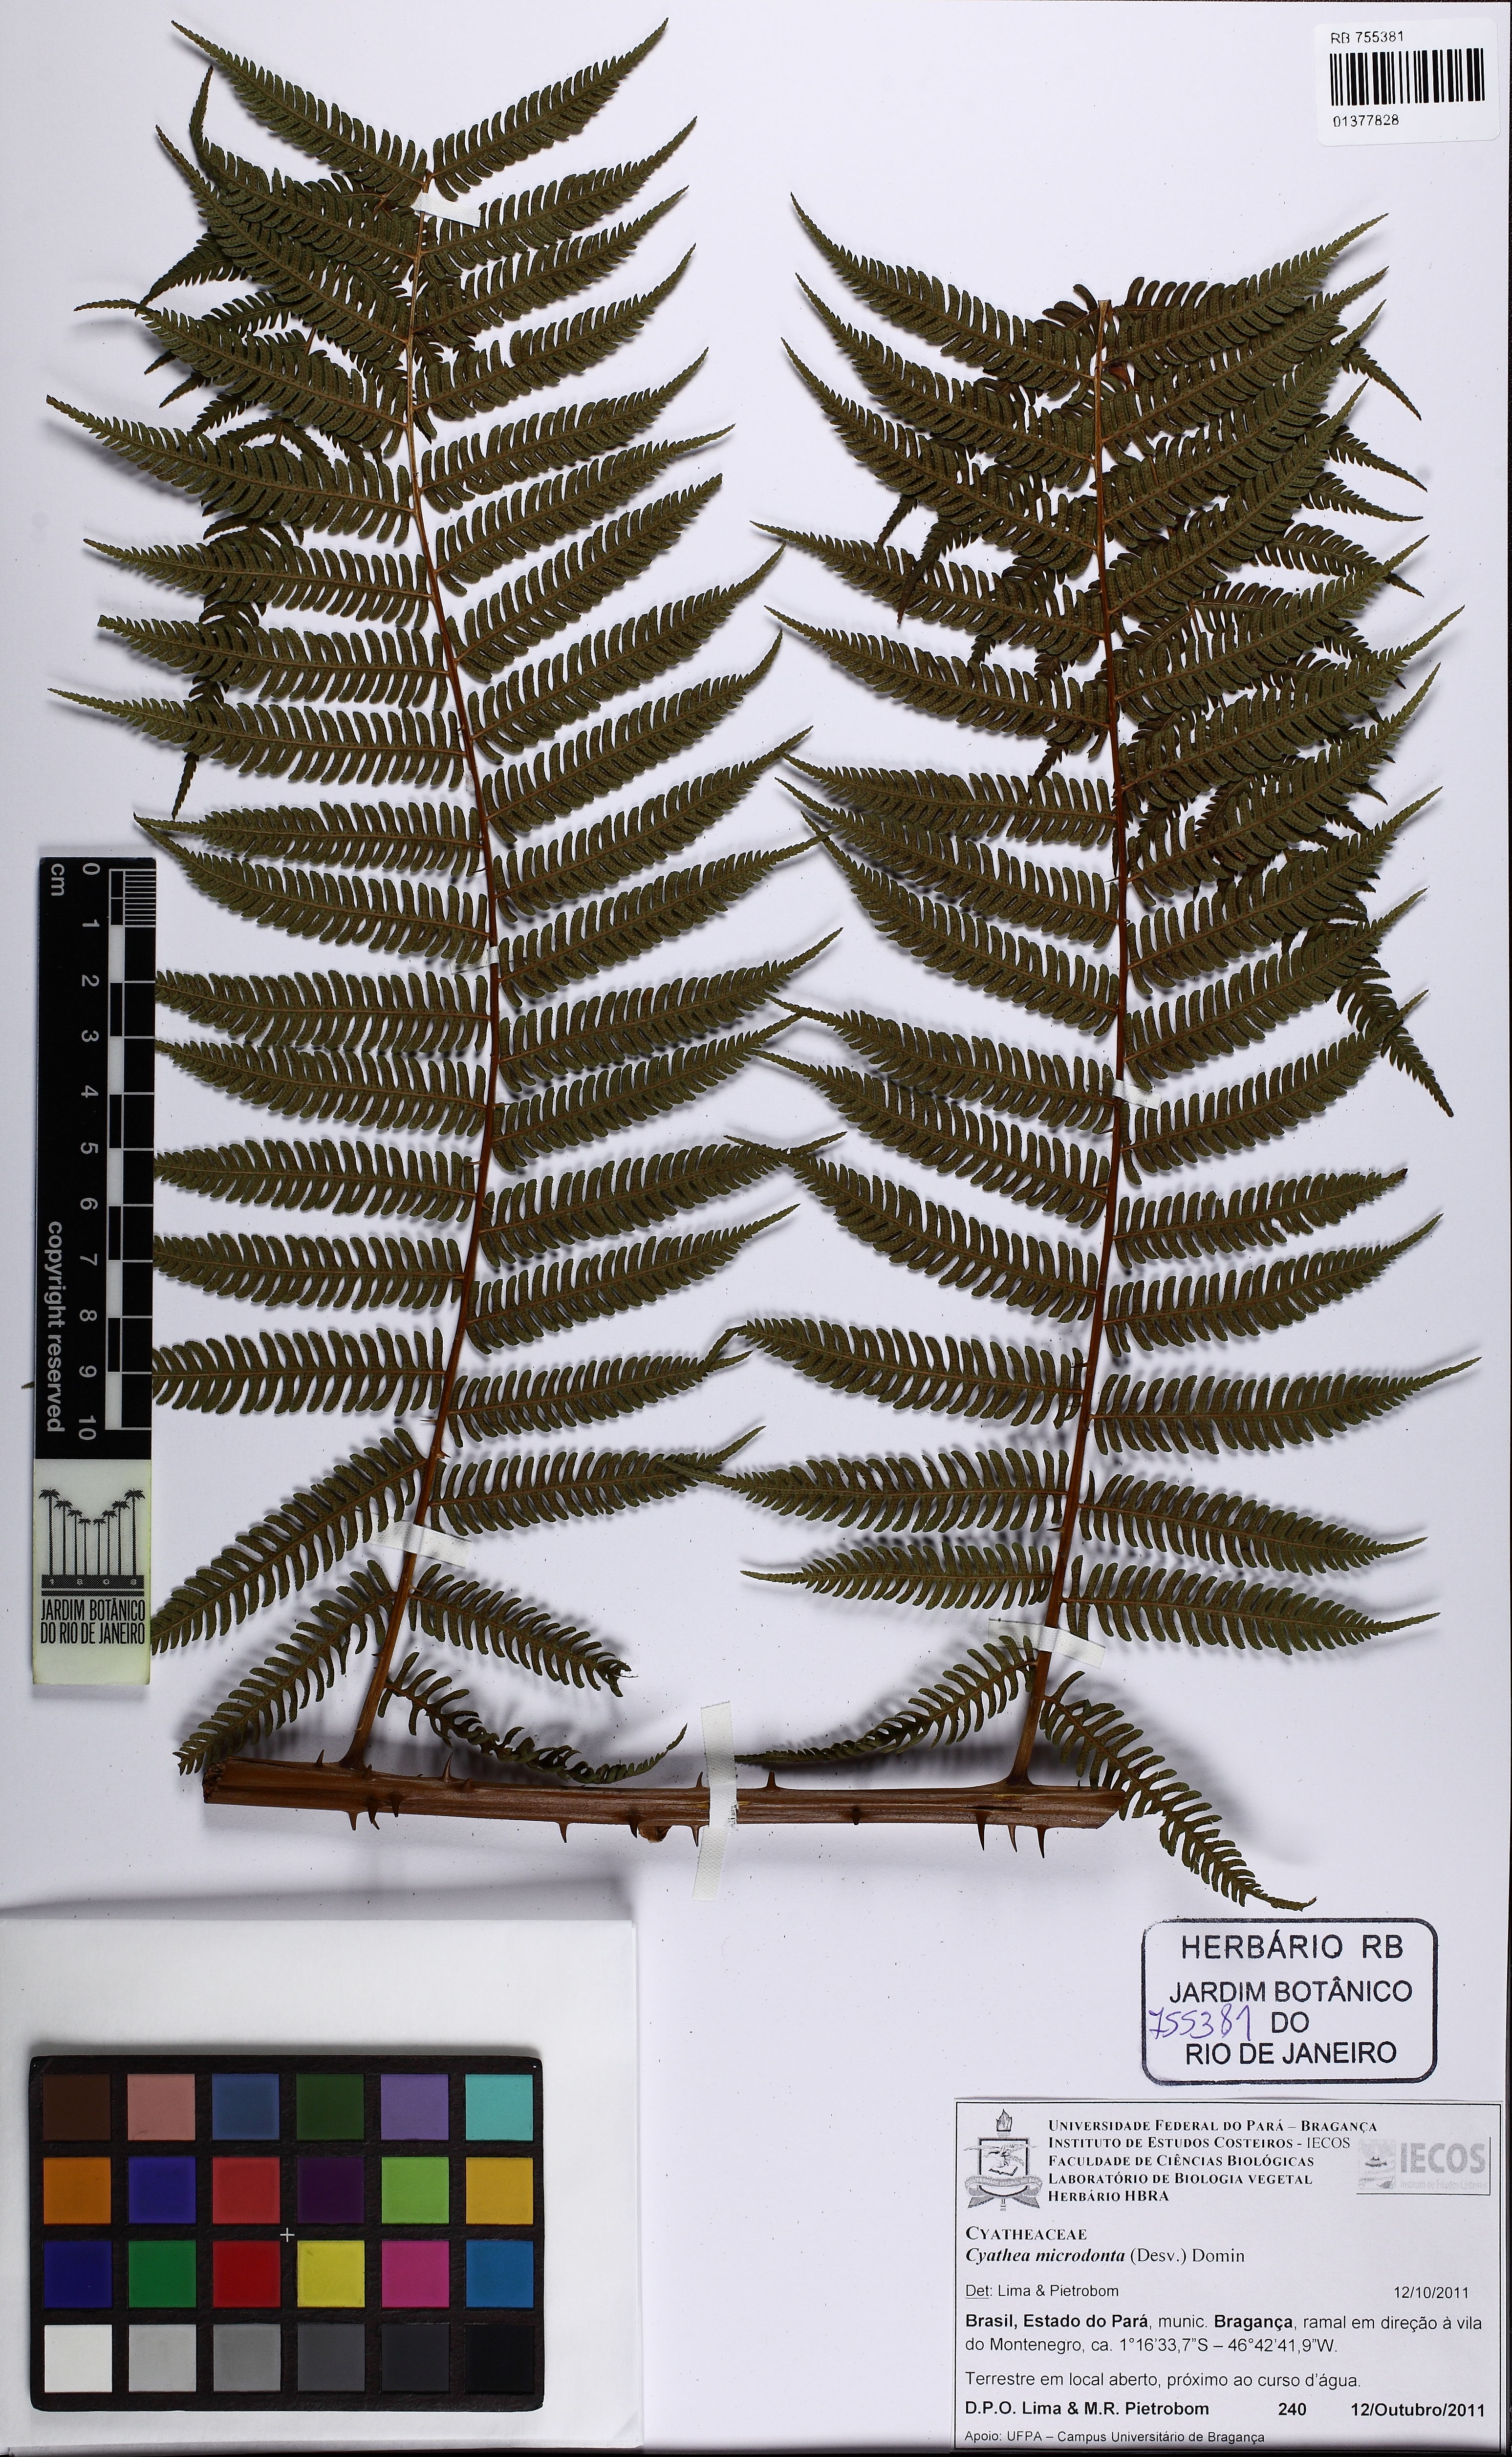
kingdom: Plantae
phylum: Tracheophyta
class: Polypodiopsida
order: Cyatheales
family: Cyatheaceae
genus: Cyathea
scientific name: Cyathea microdonta
